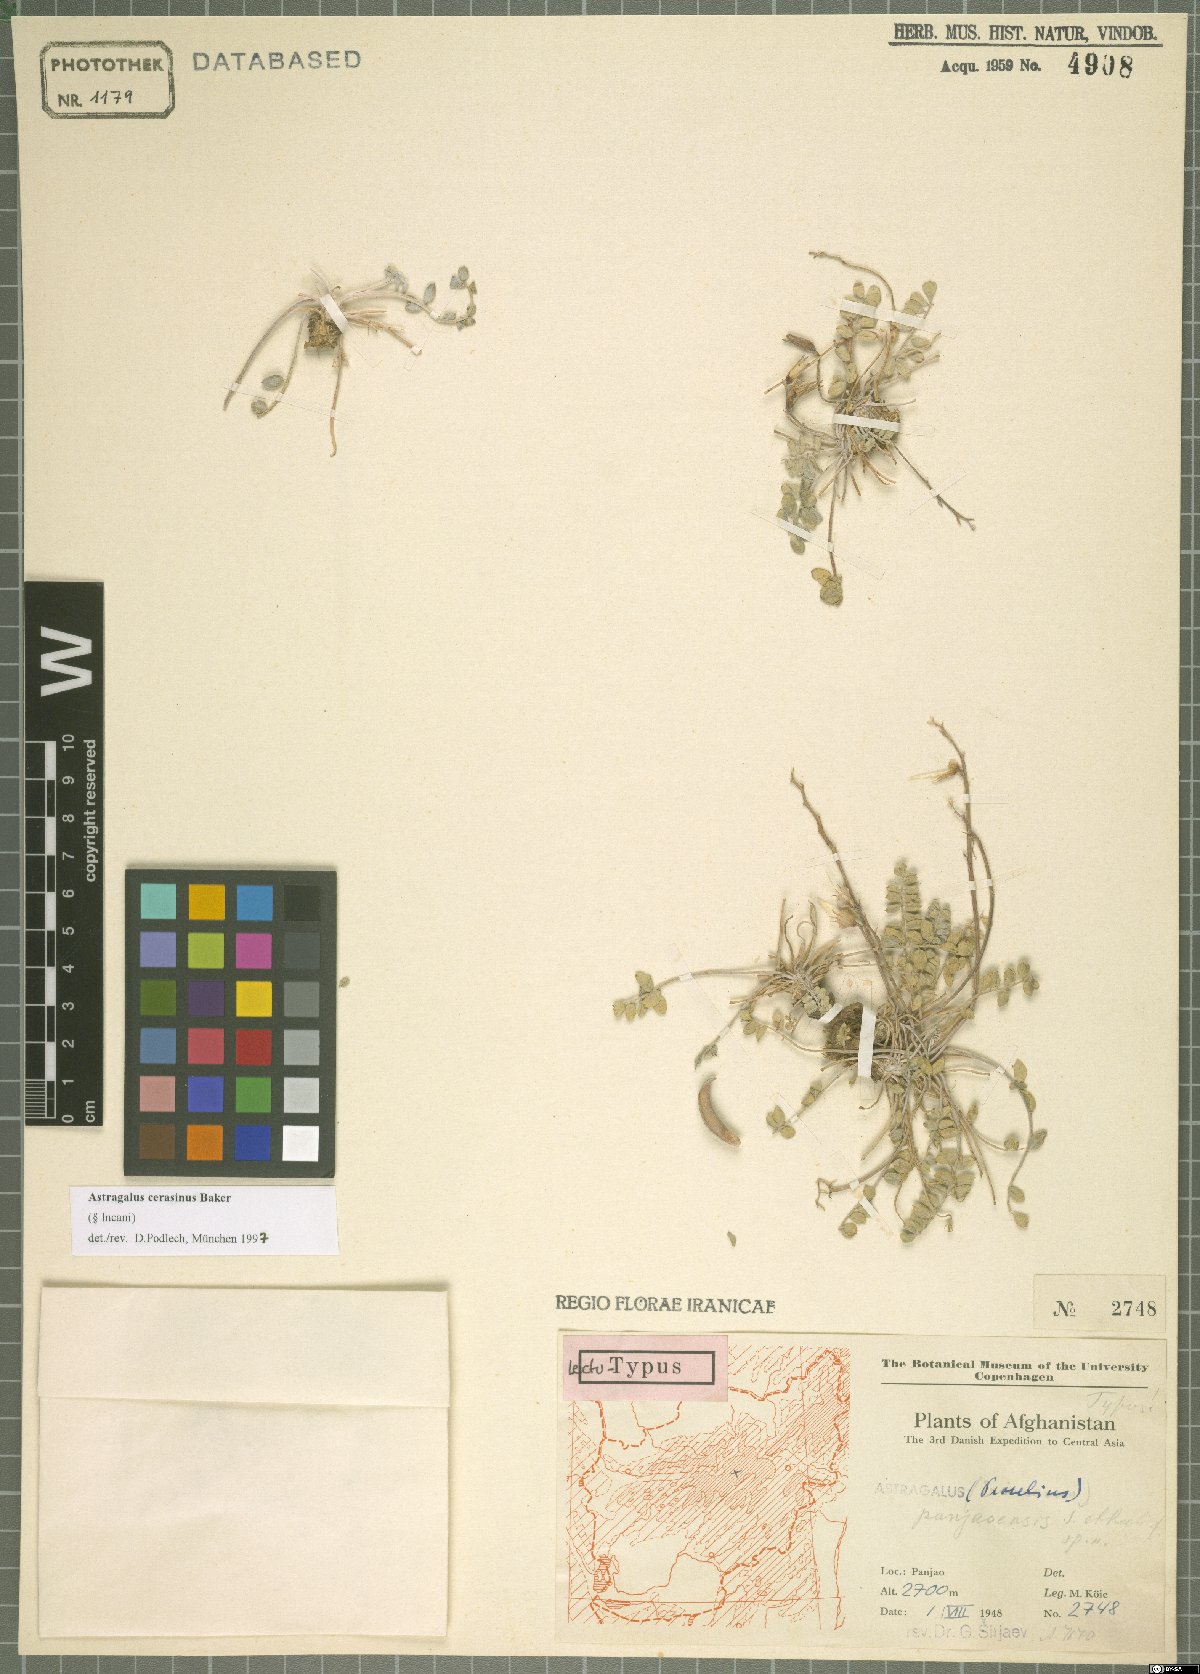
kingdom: Plantae
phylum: Tracheophyta
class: Magnoliopsida
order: Fabales
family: Fabaceae
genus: Astragalus
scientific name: Astragalus cerasinus
